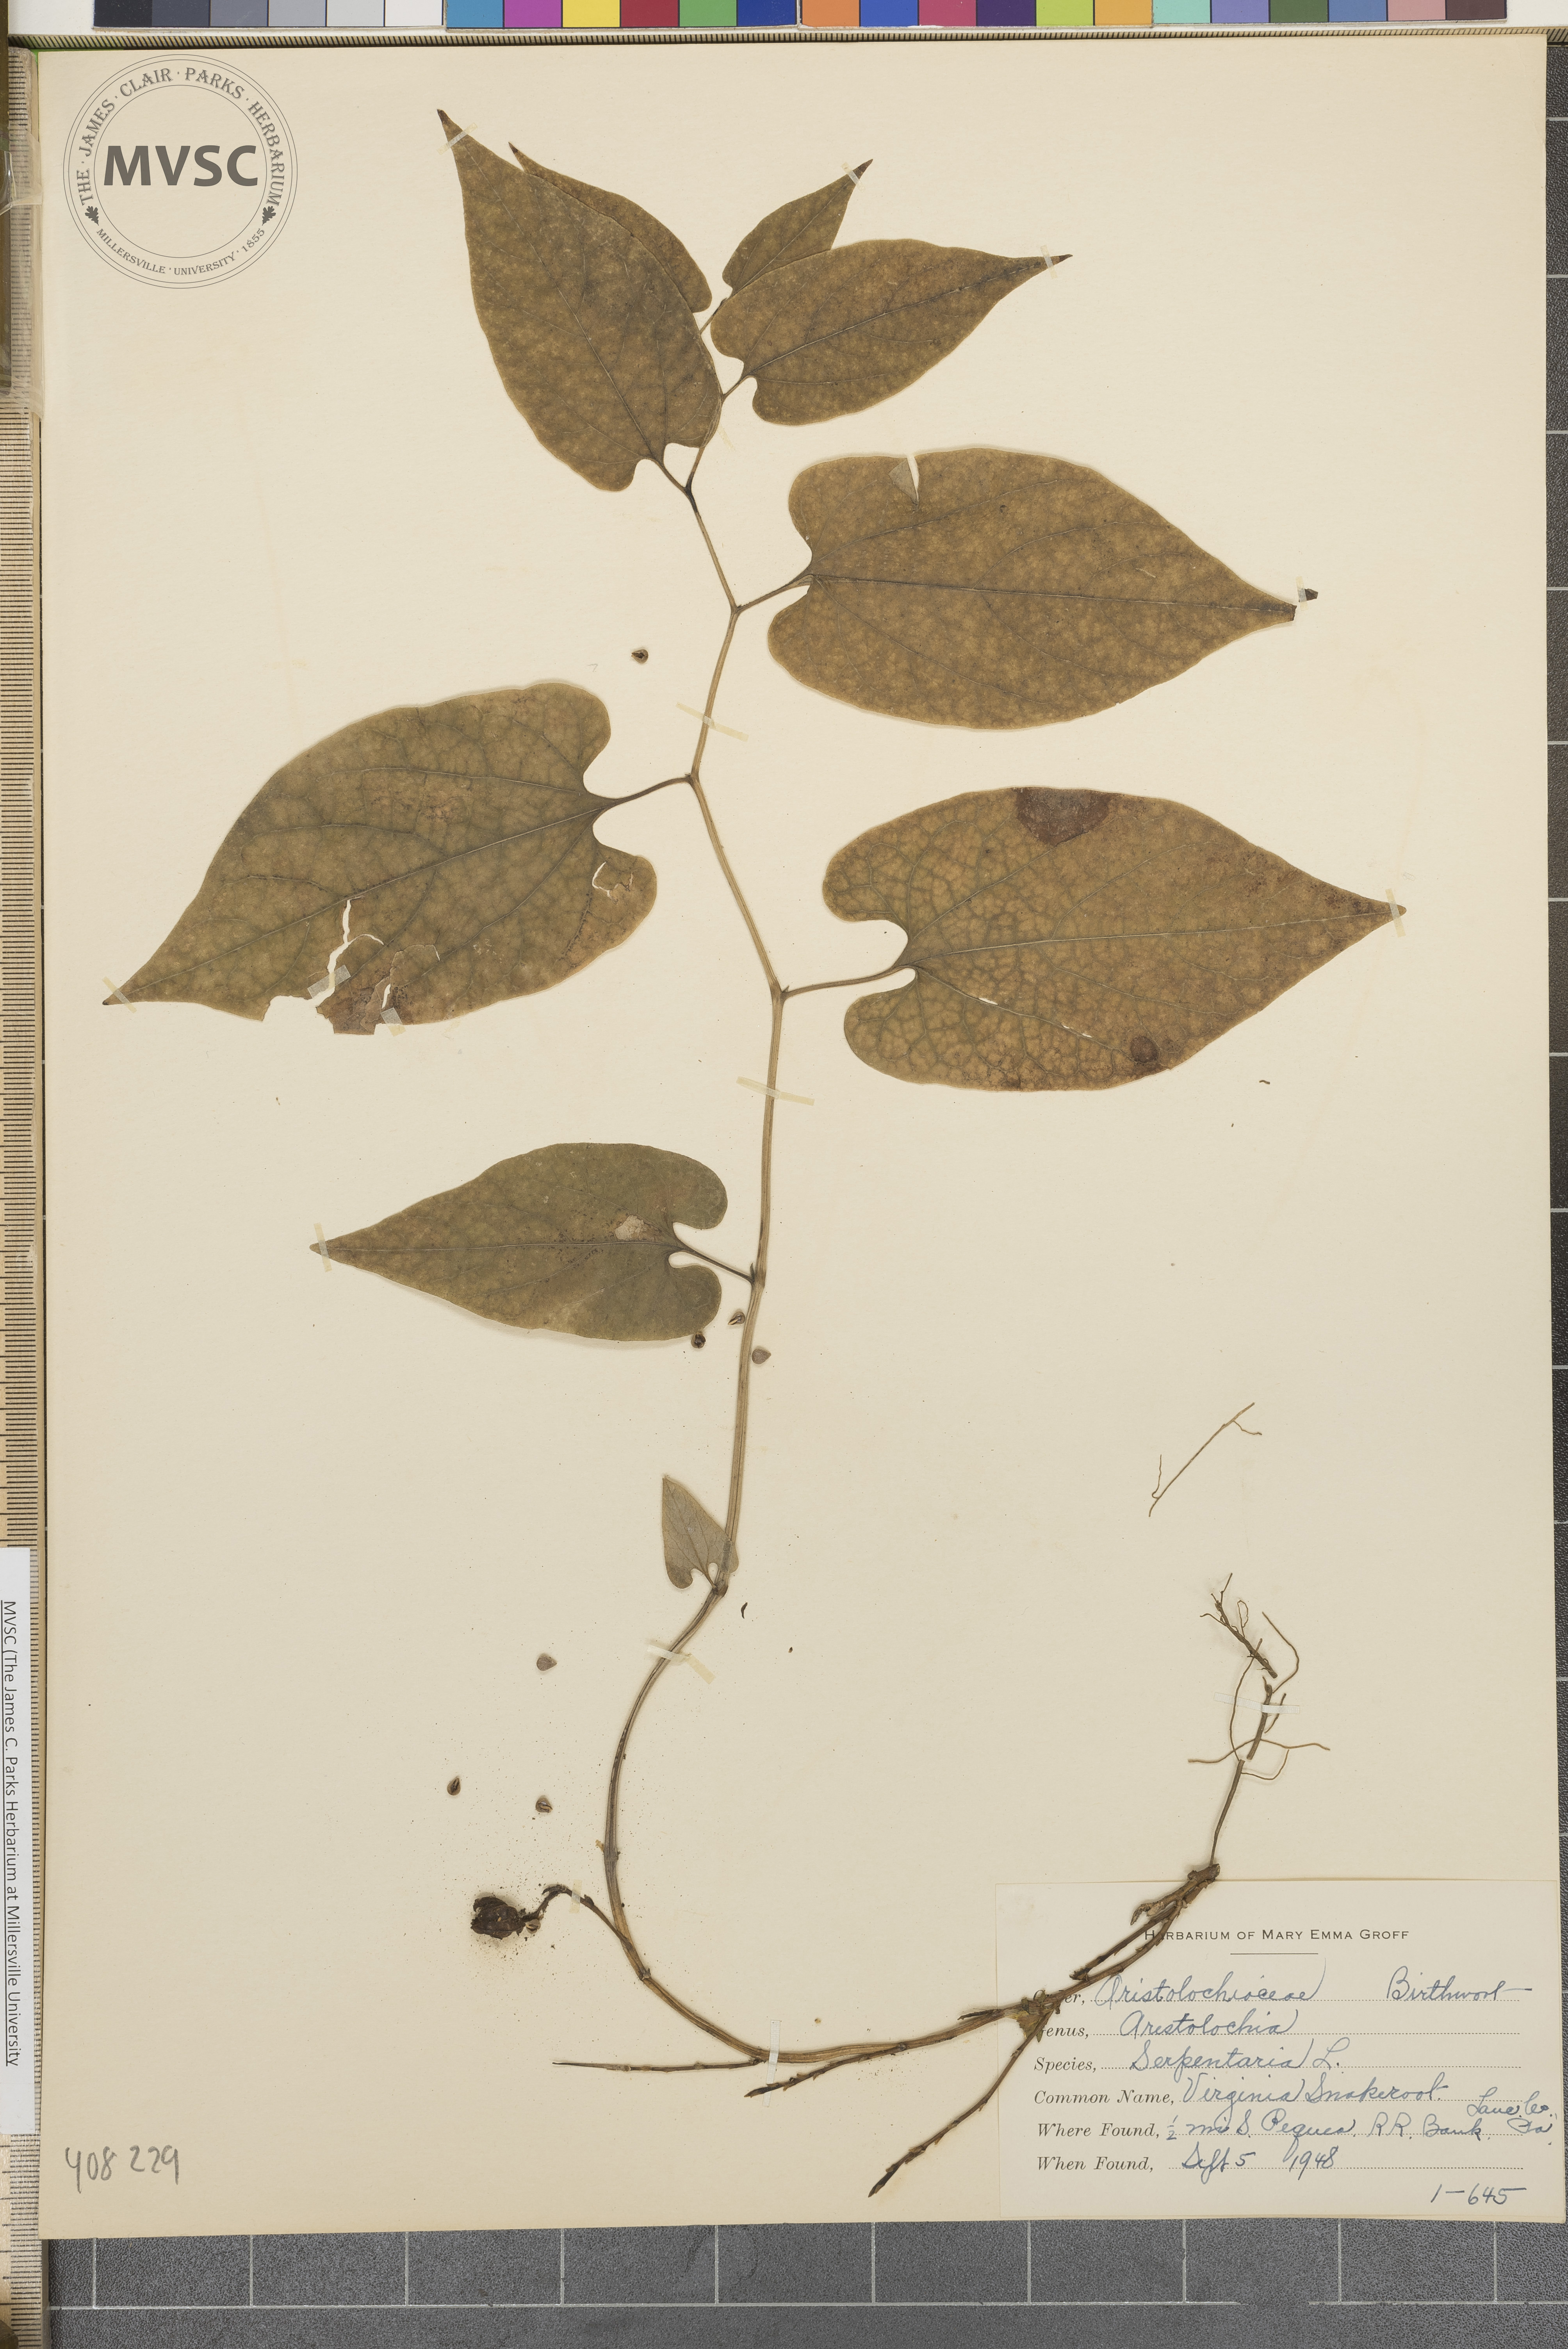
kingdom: Plantae
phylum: Tracheophyta
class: Magnoliopsida
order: Piperales
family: Aristolochiaceae
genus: Endodeca
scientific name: Endodeca serpentaria
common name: Virginia Snakeroot
